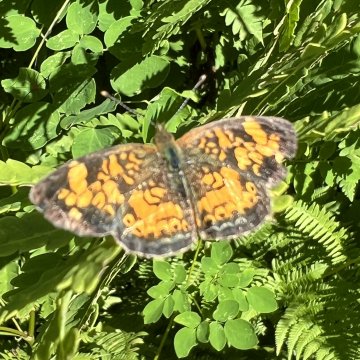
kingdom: Animalia
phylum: Arthropoda
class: Insecta
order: Lepidoptera
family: Nymphalidae
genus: Phyciodes
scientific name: Phyciodes
